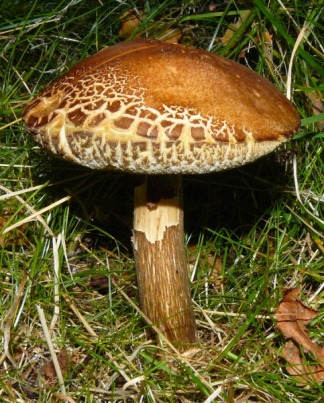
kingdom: Fungi
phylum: Basidiomycota
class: Agaricomycetes
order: Boletales
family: Suillaceae
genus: Suillus
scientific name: Suillus luteus
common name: brungul slimrørhat
